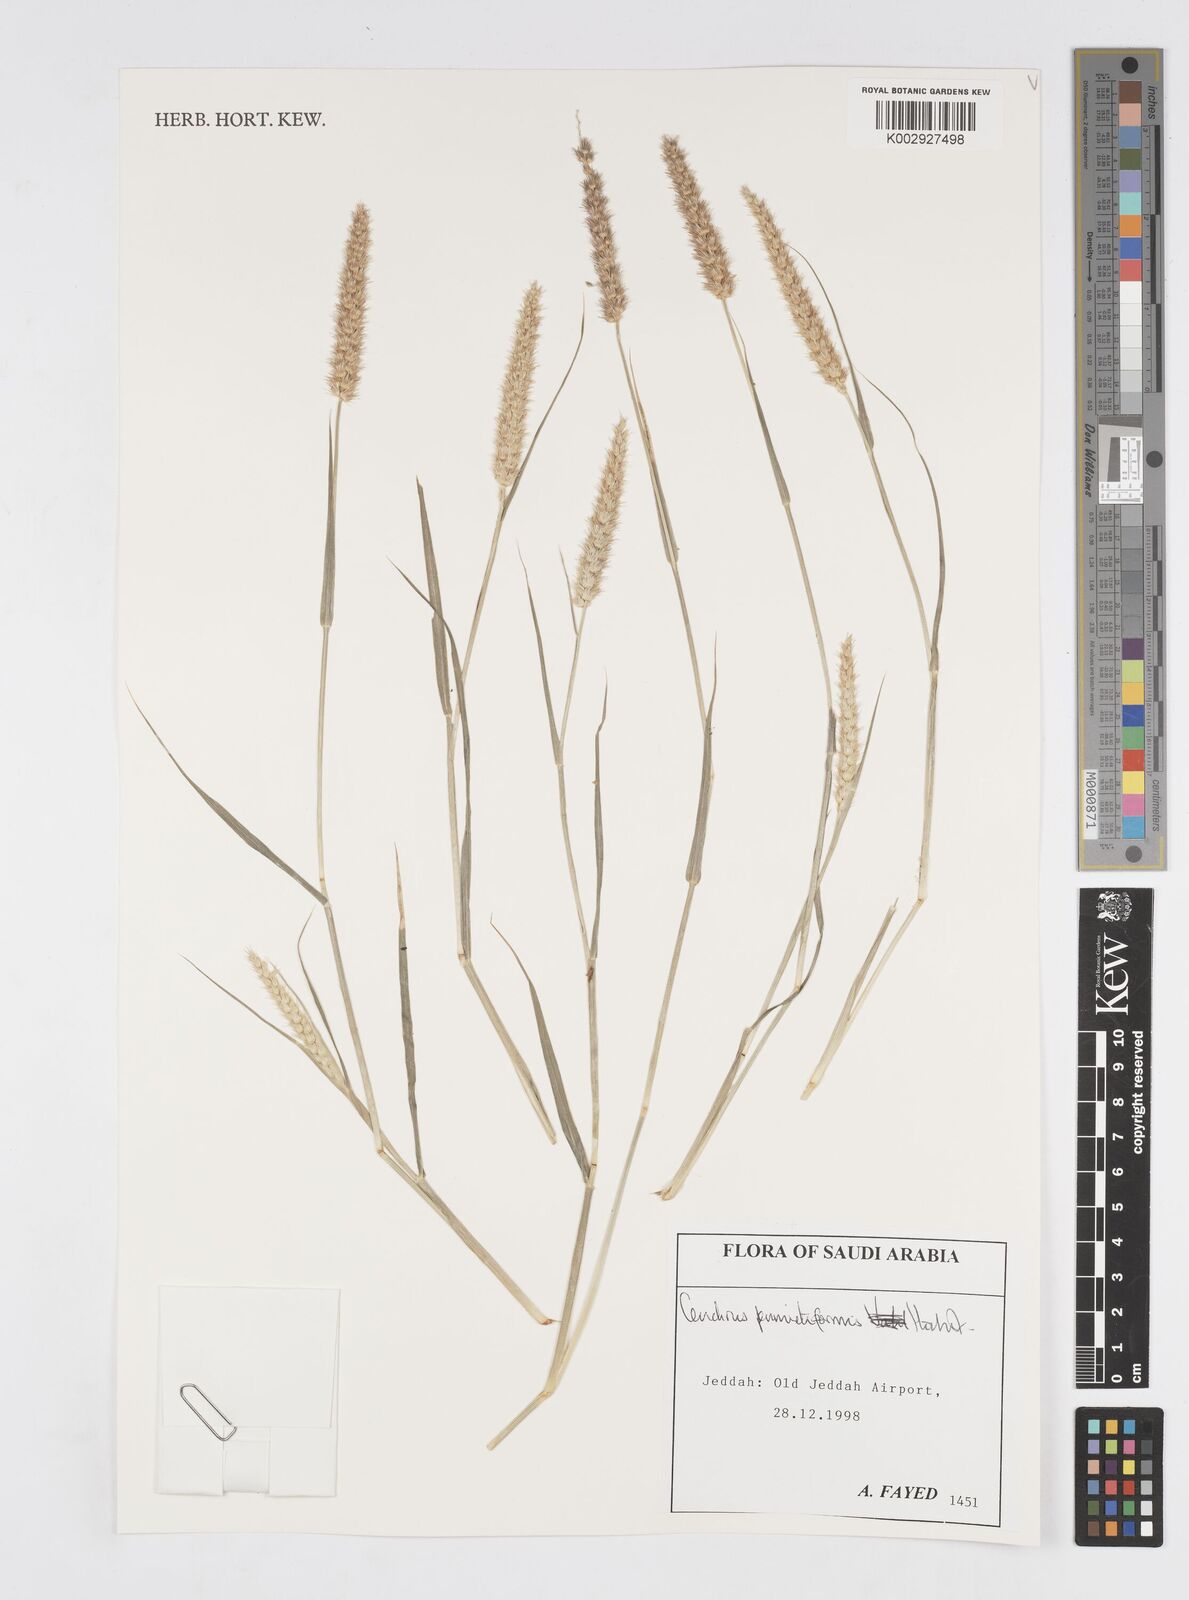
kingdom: Plantae
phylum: Tracheophyta
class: Liliopsida
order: Poales
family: Poaceae
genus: Cenchrus
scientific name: Cenchrus pennisetiformis
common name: Cloncurry
